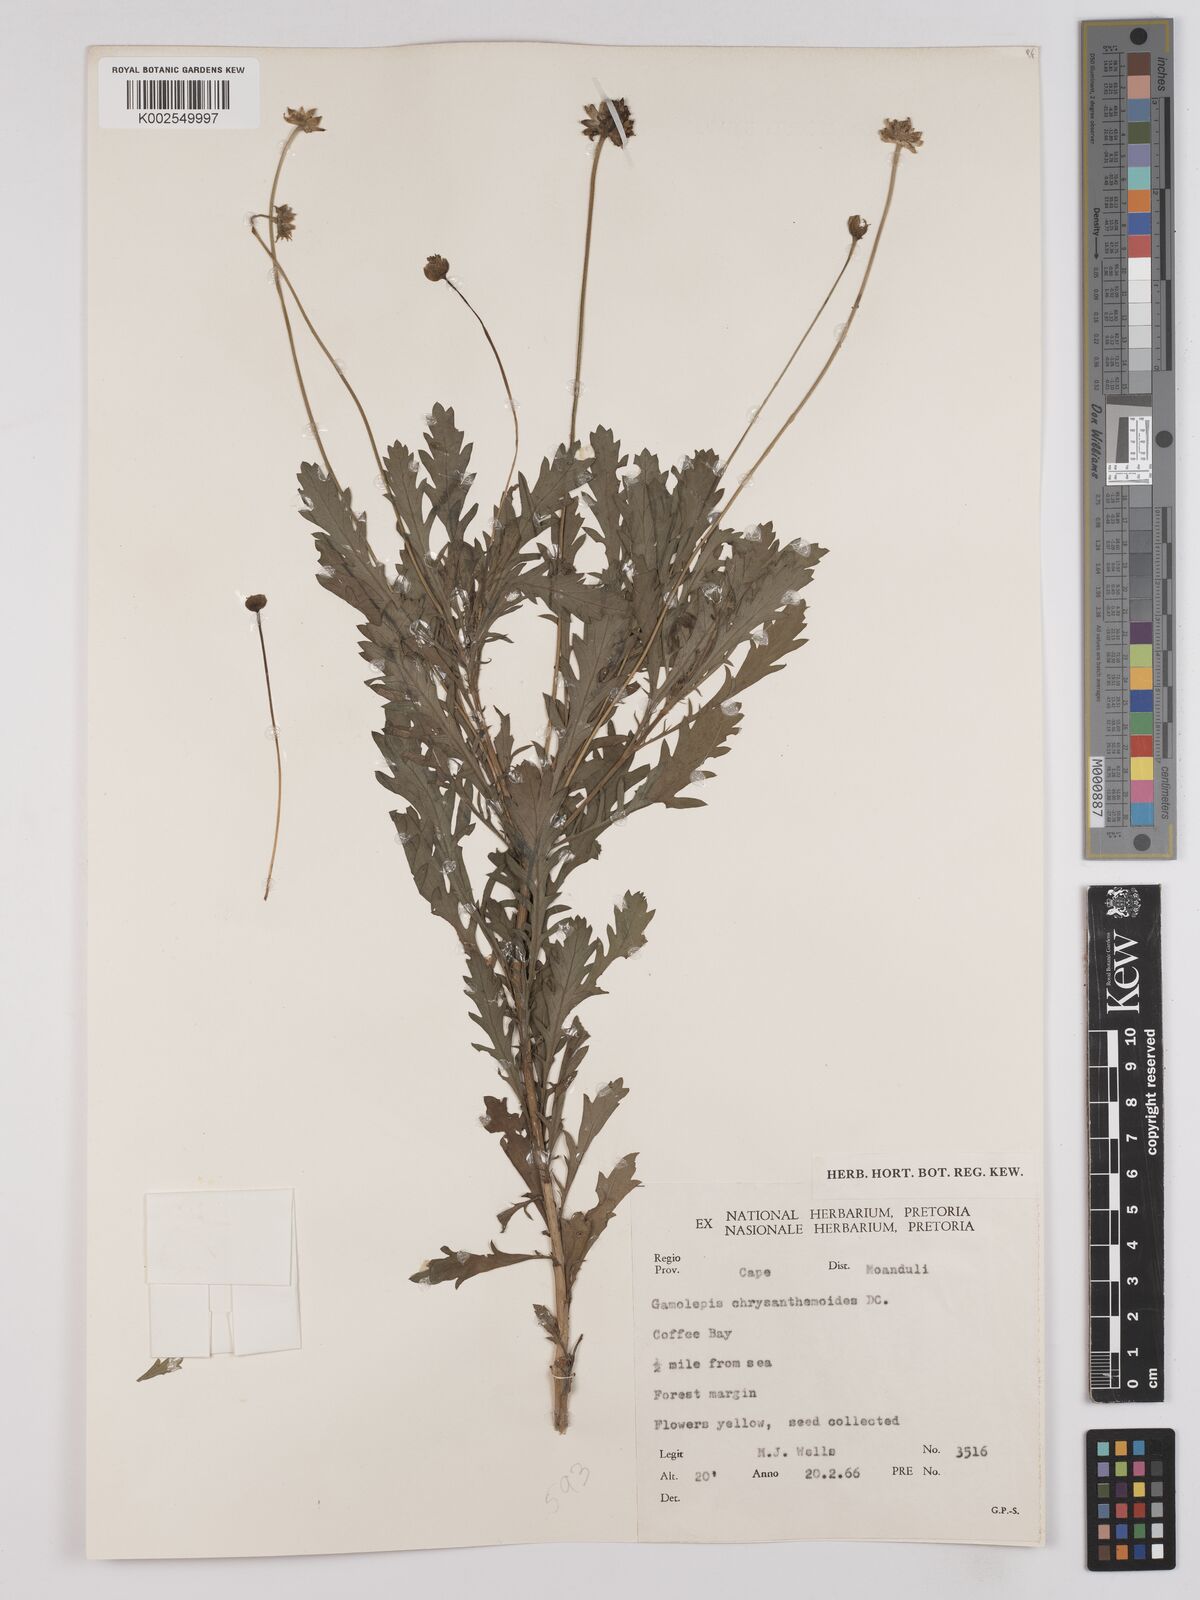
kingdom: Plantae
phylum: Tracheophyta
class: Magnoliopsida
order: Asterales
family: Asteraceae
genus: Euryops
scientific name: Euryops chrysanthemoides
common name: Bull's eye
